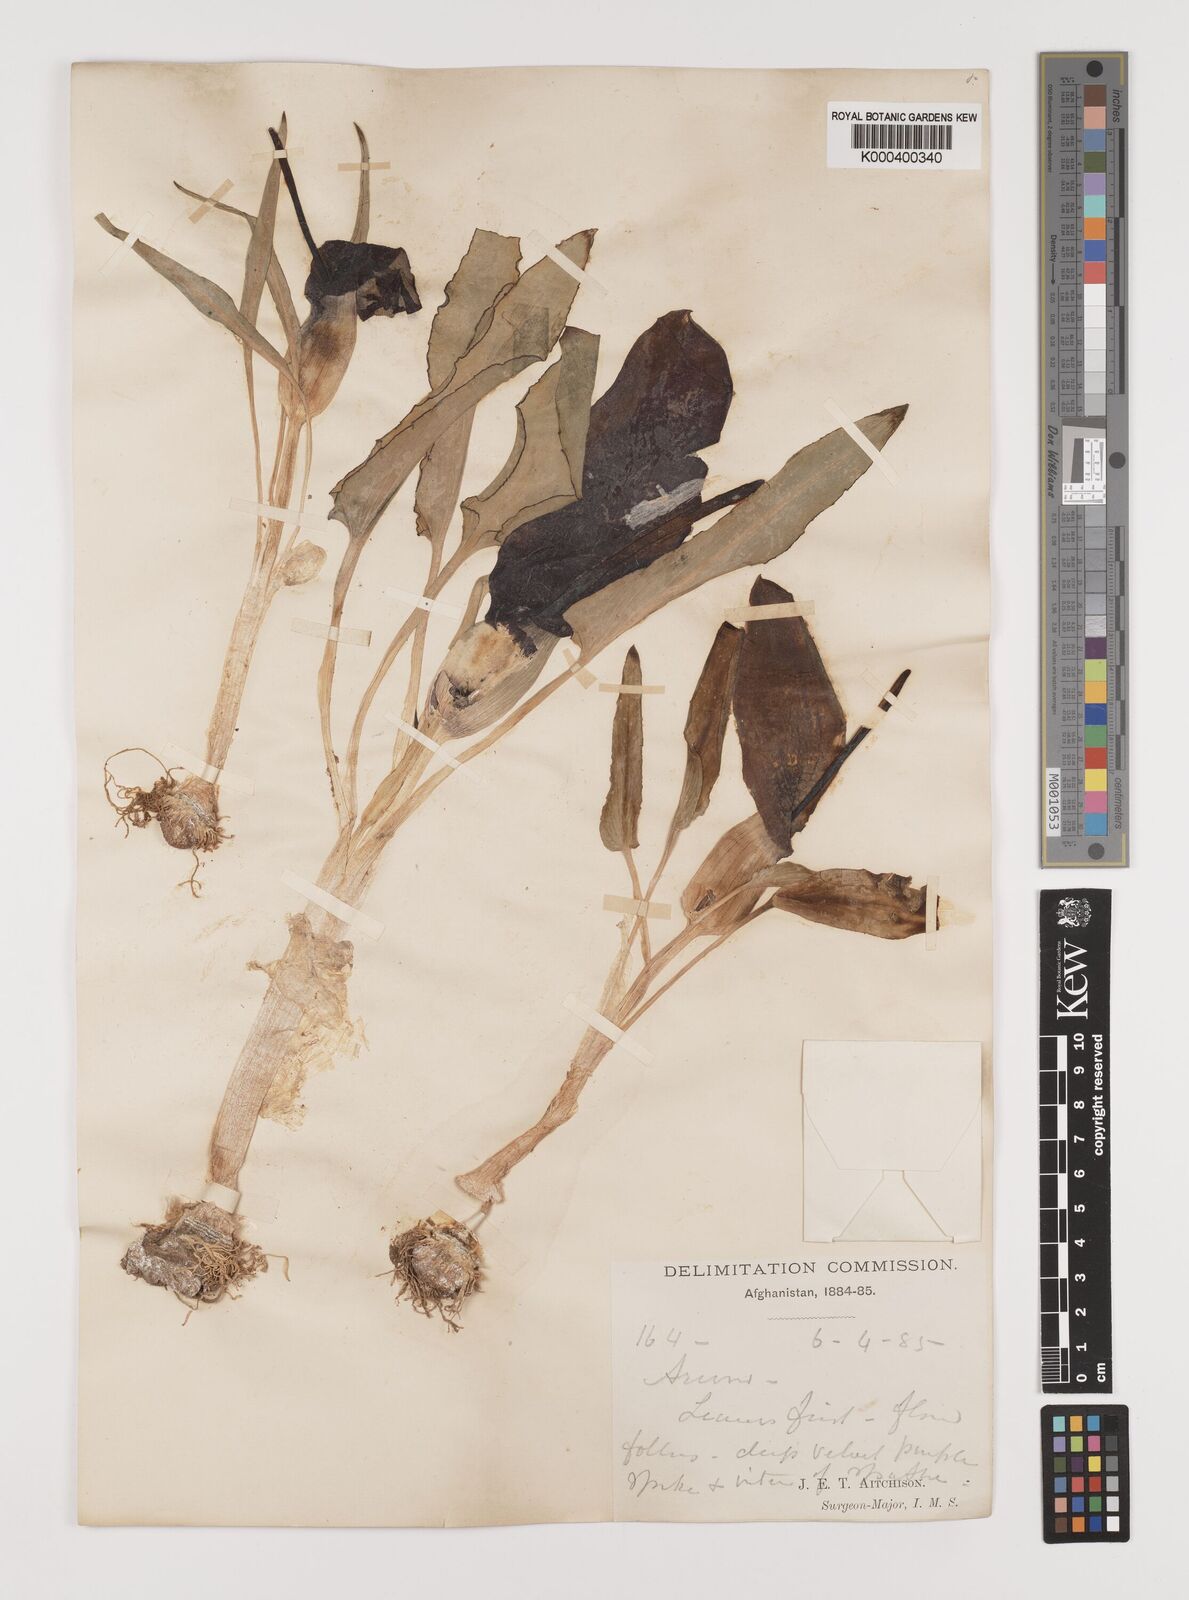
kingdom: Plantae
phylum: Tracheophyta
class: Liliopsida
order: Alismatales
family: Araceae
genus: Eminium
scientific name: Eminium lehmannii
